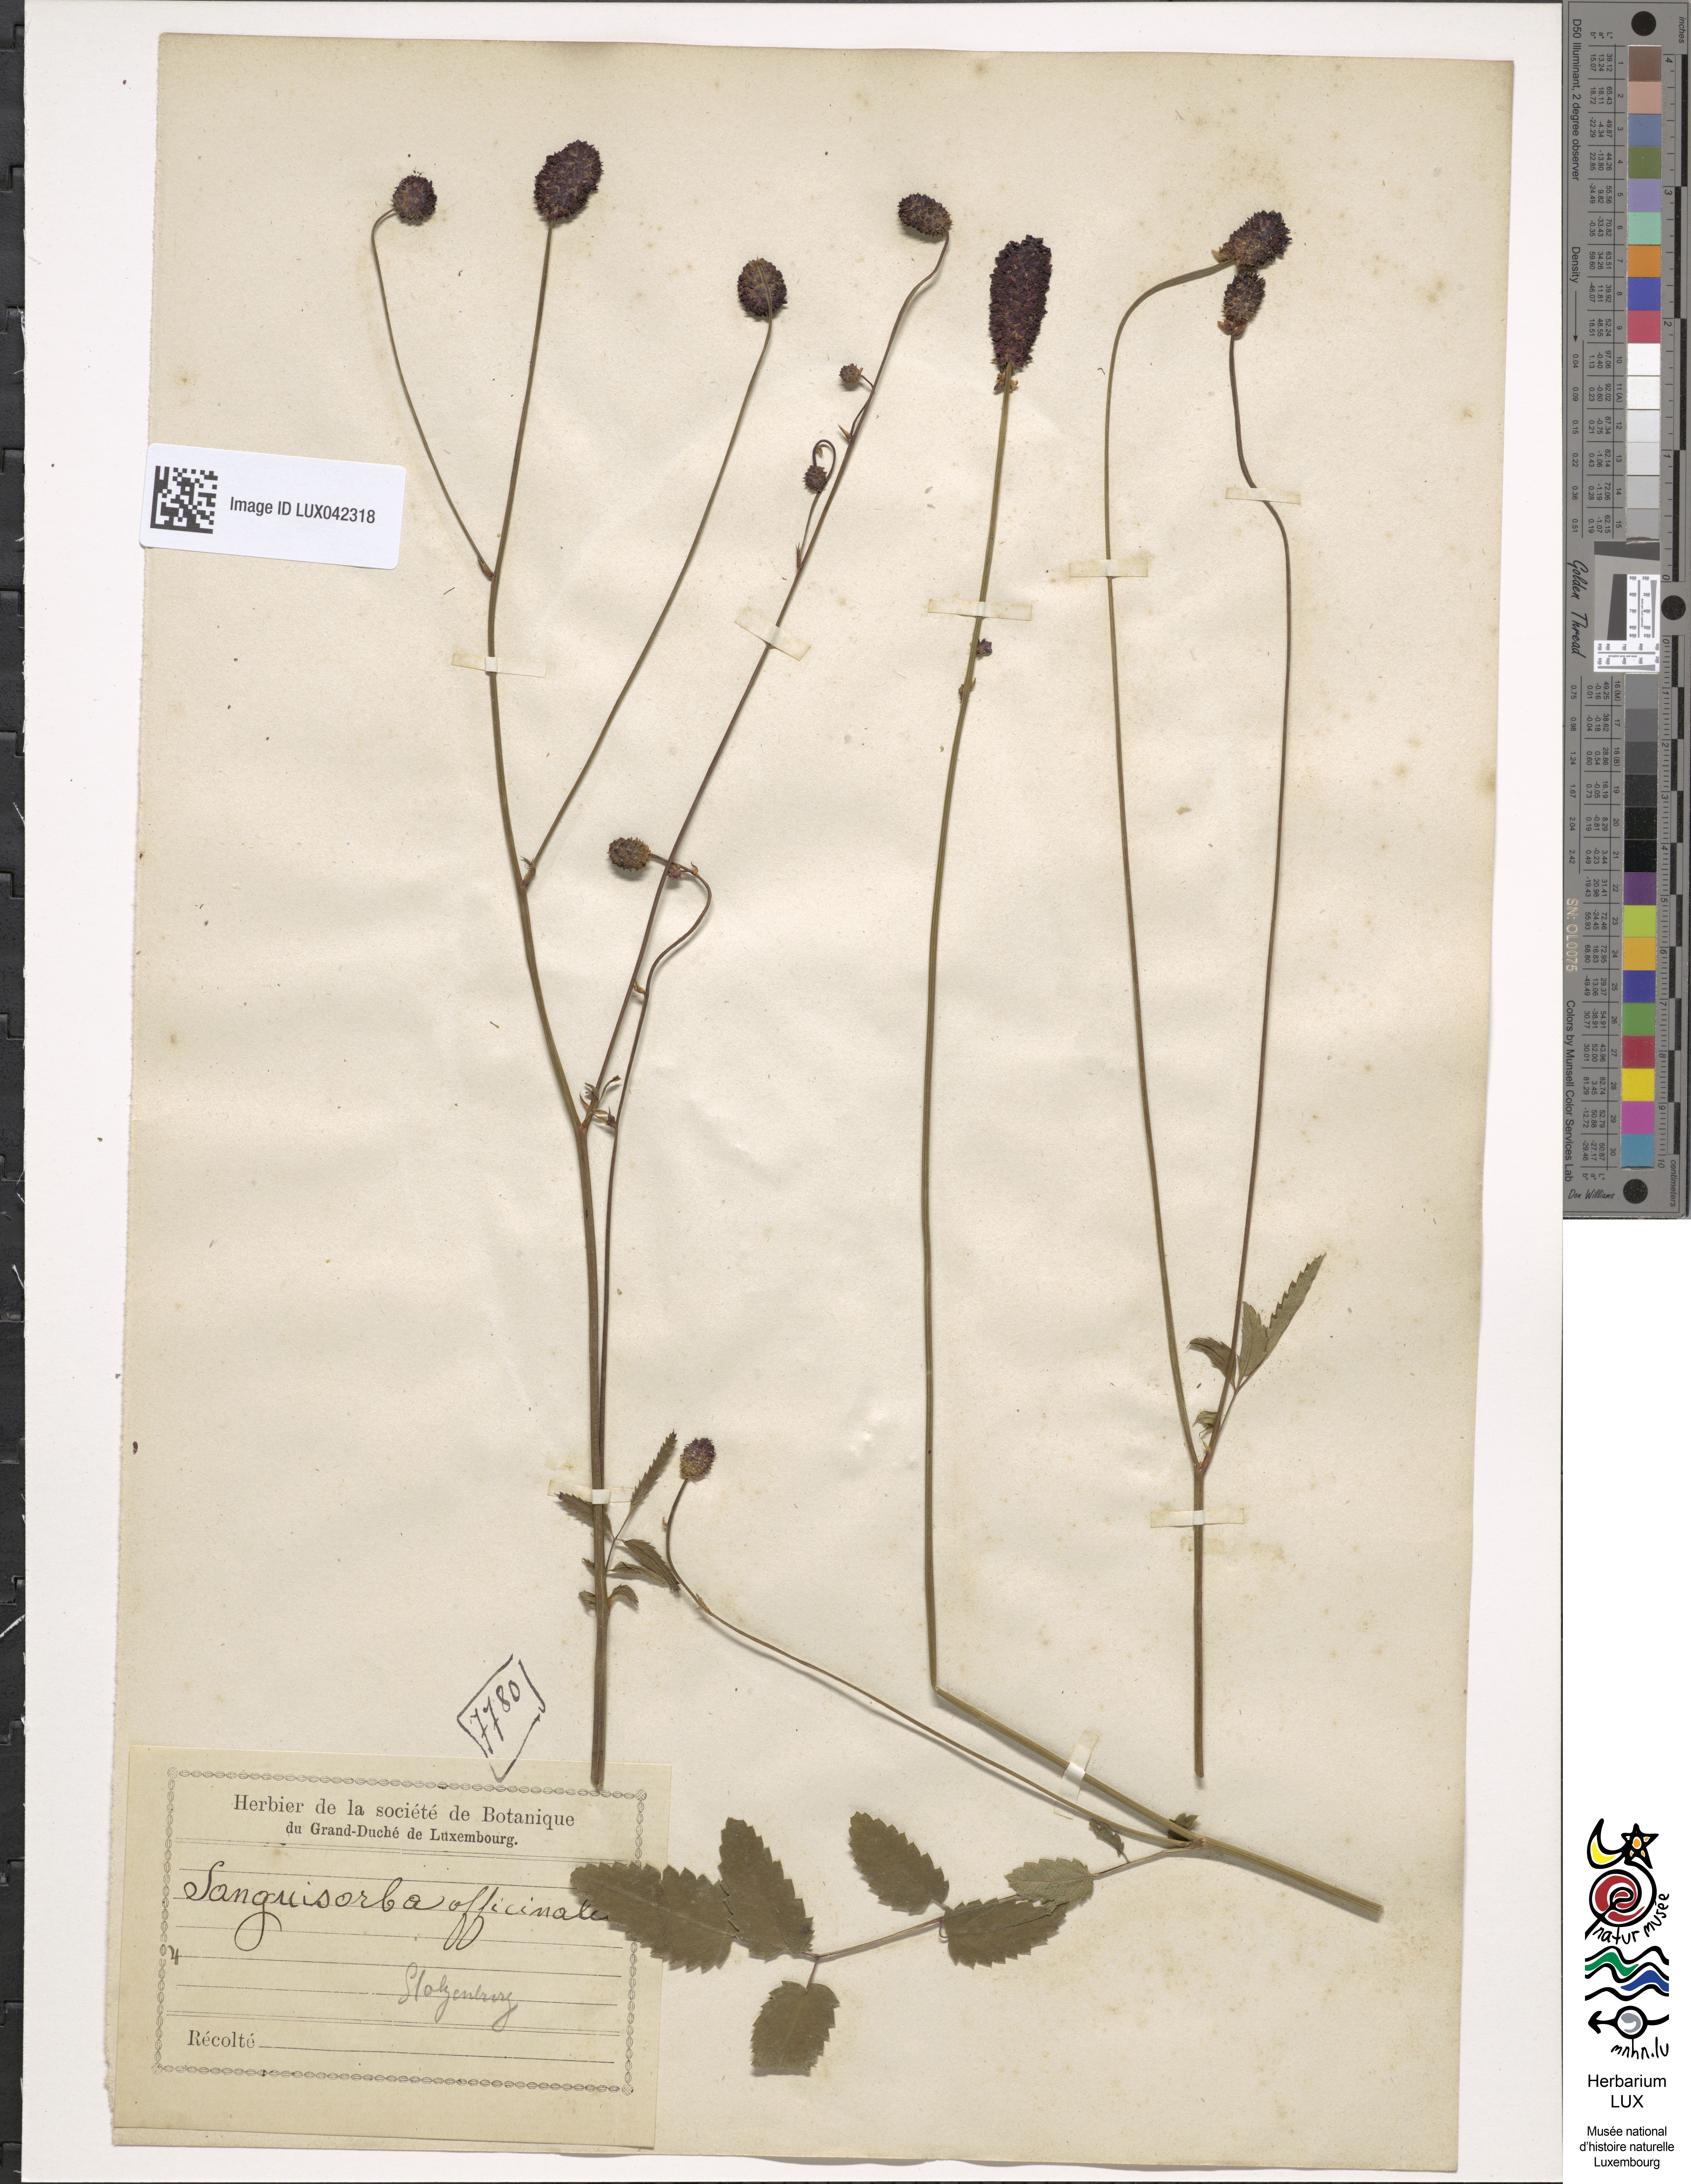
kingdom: Plantae
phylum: Tracheophyta
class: Magnoliopsida
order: Rosales
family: Rosaceae
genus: Sanguisorba
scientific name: Sanguisorba officinalis
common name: Great burnet
